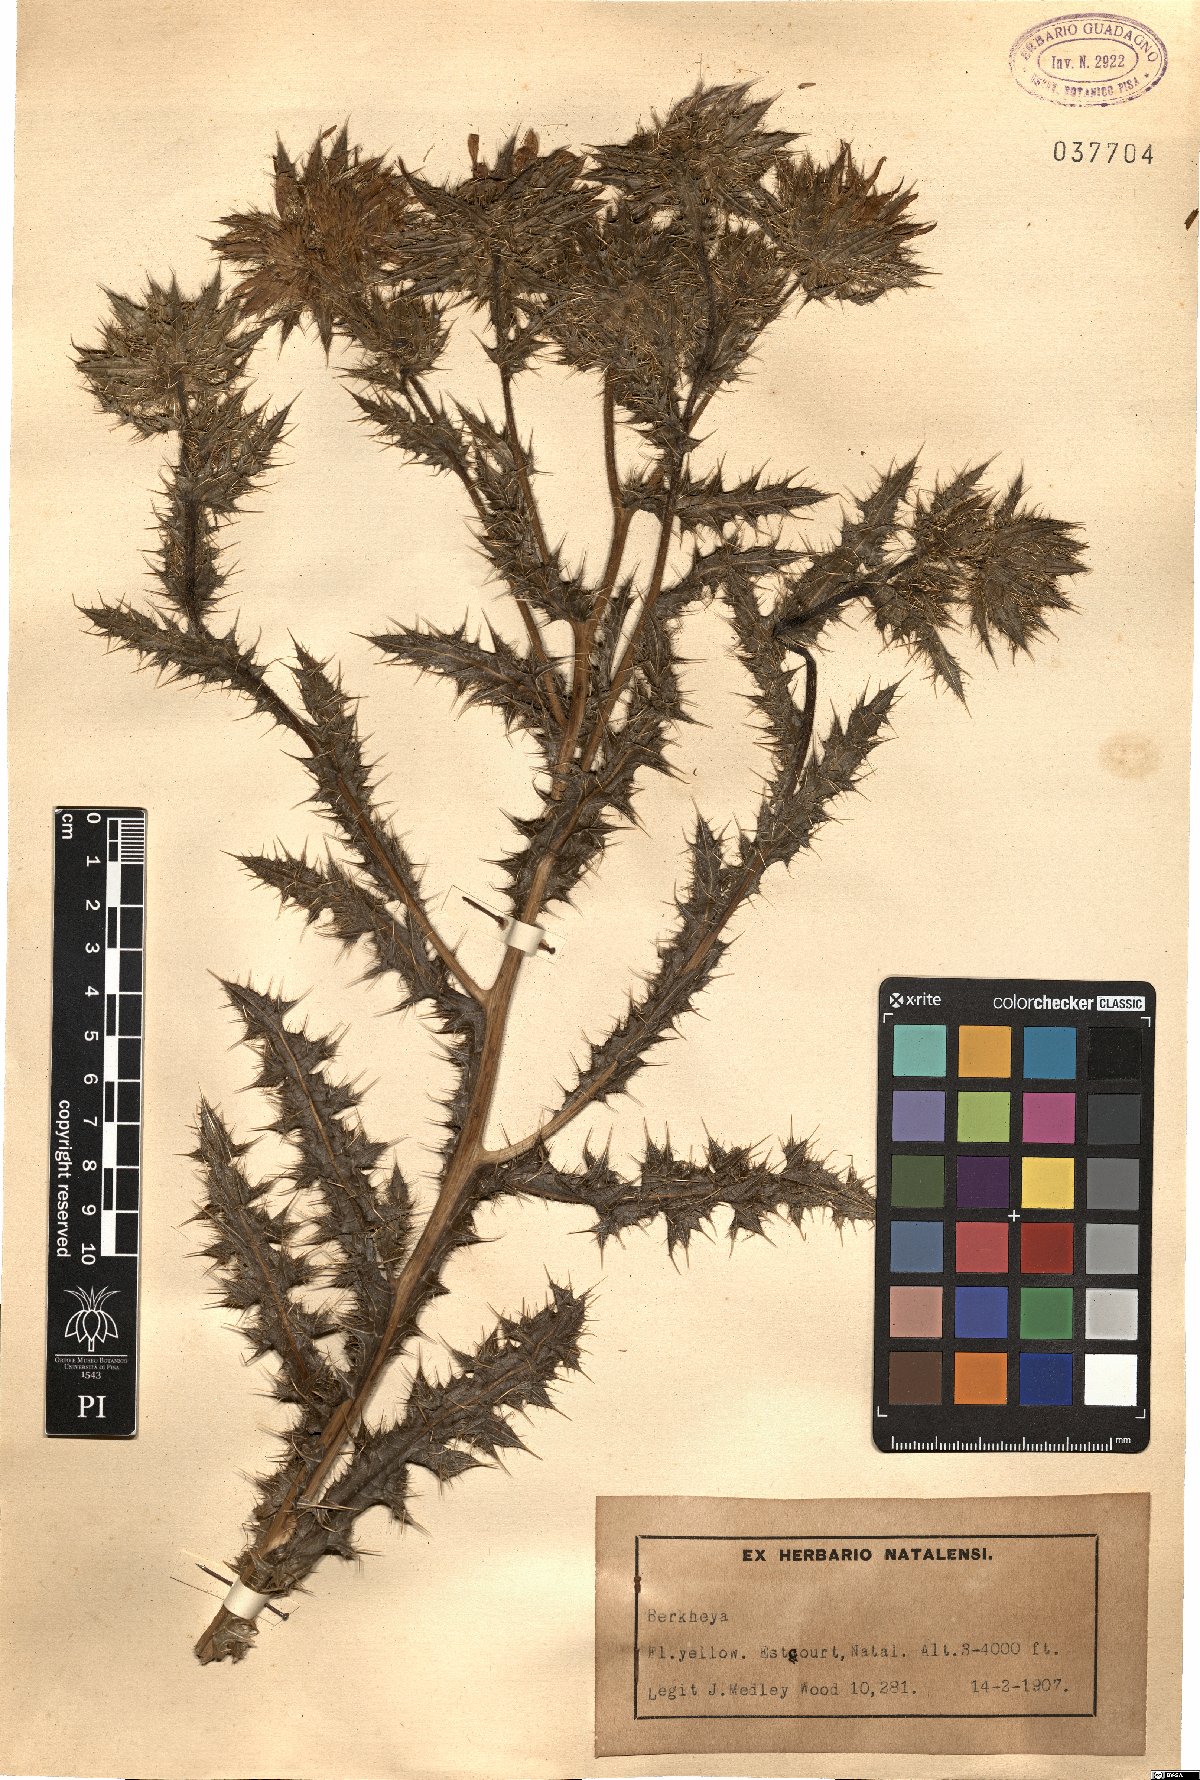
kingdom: Plantae
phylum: Tracheophyta
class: Magnoliopsida
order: Asterales
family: Asteraceae
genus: Berkheya
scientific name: Berkheya
